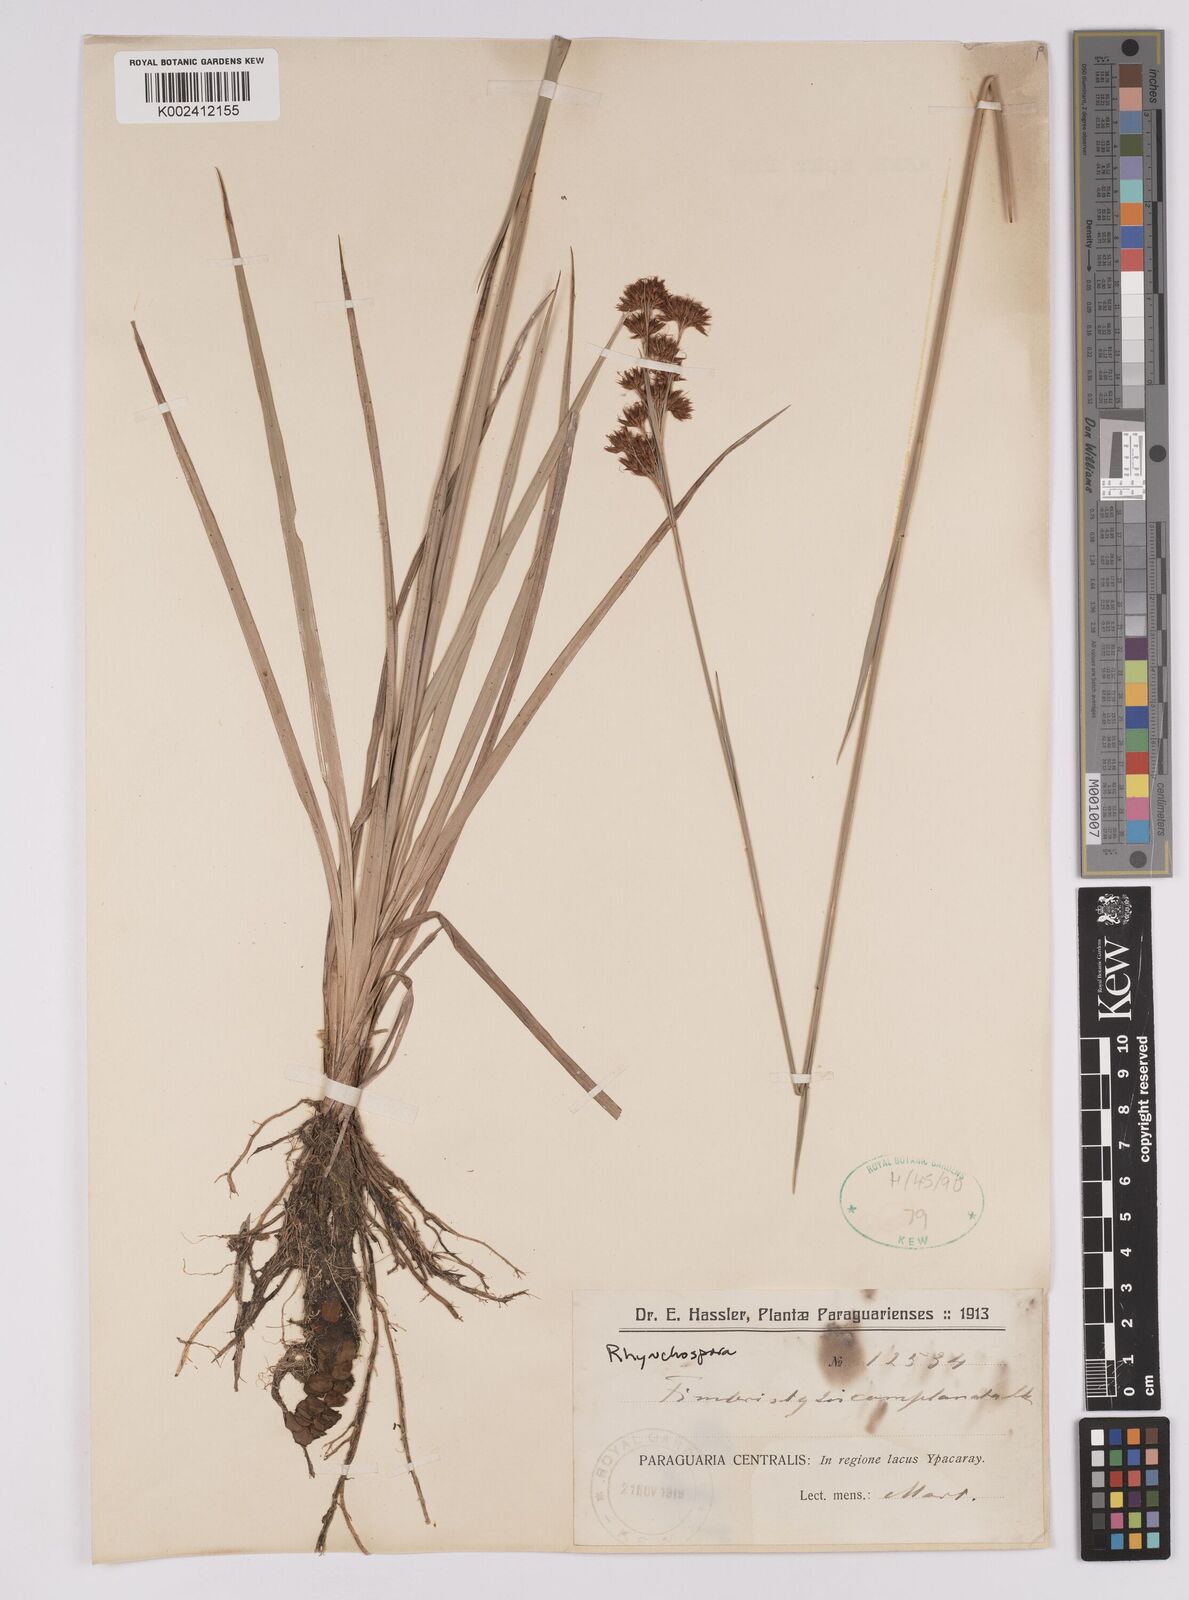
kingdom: Plantae
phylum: Tracheophyta
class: Liliopsida
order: Poales
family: Cyperaceae
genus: Rhynchospora
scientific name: Rhynchospora
